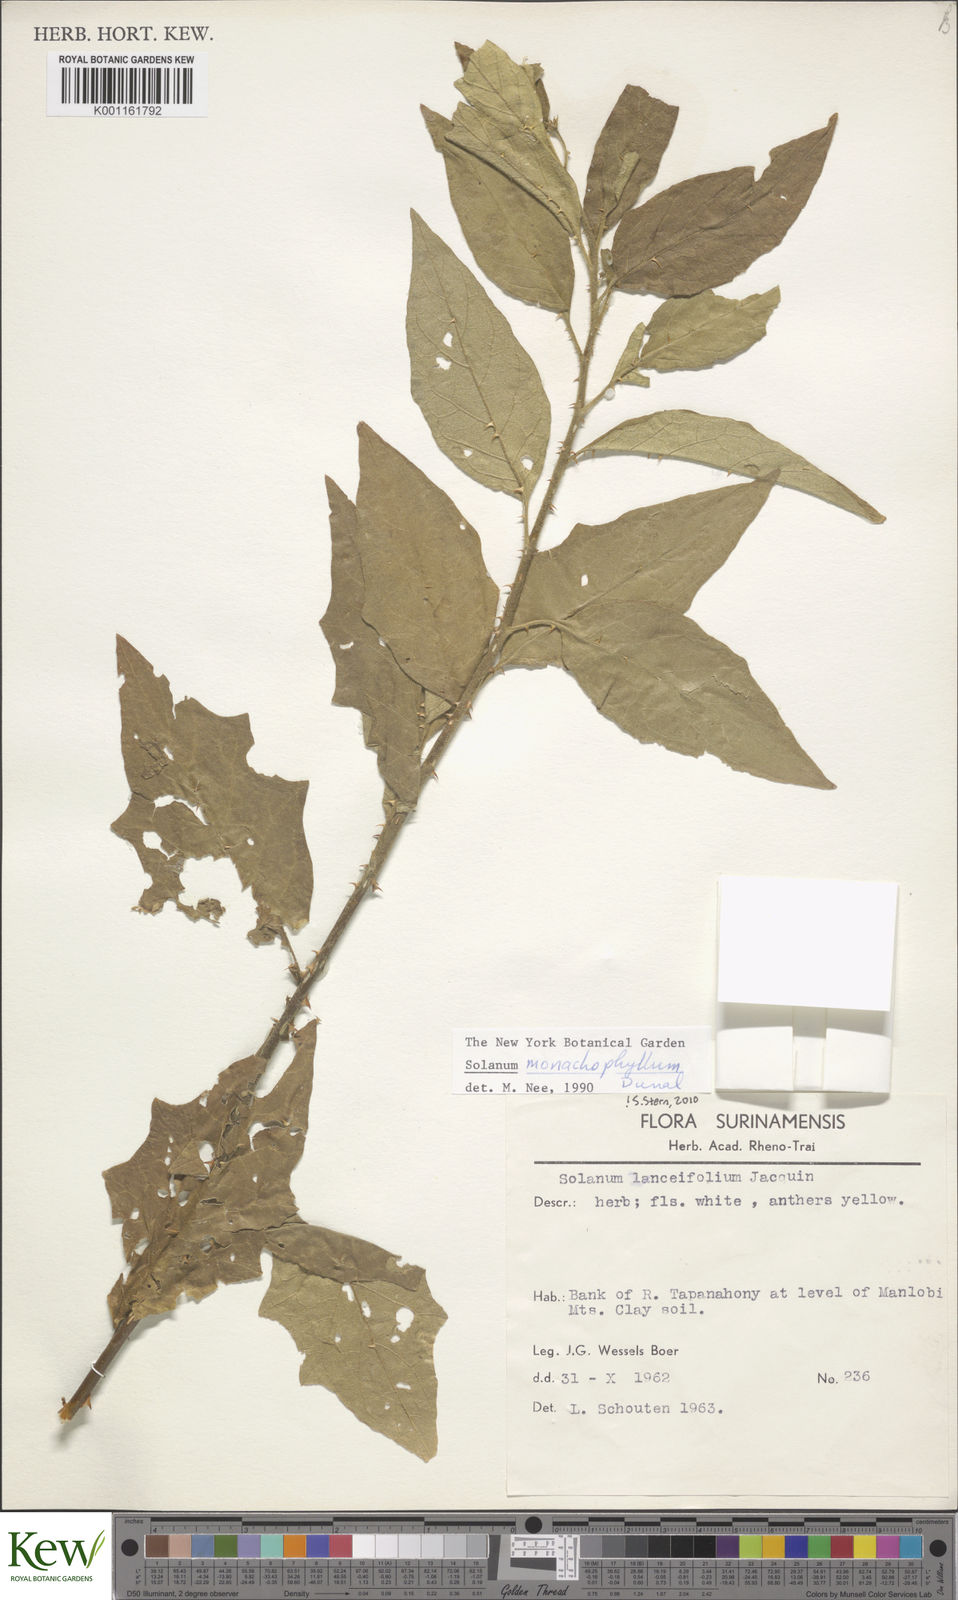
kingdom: Plantae
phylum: Tracheophyta
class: Magnoliopsida
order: Solanales
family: Solanaceae
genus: Solanum
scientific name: Solanum monachophyllum
